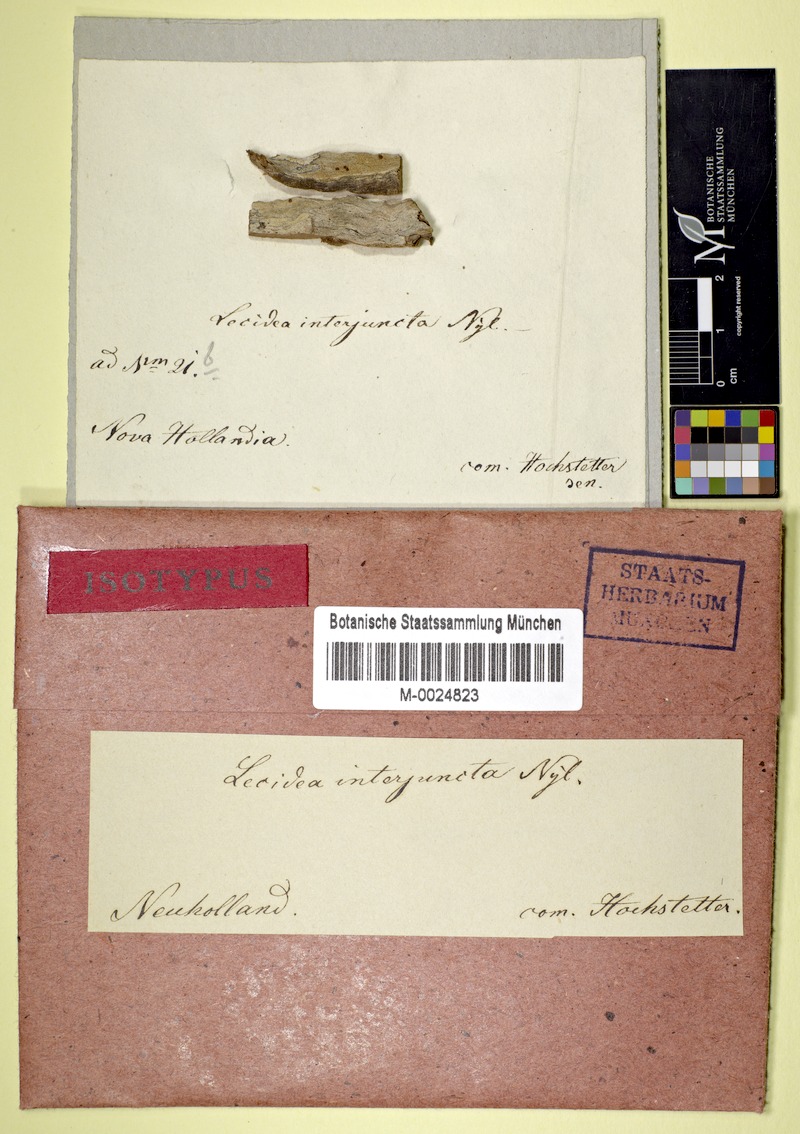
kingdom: Fungi
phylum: Ascomycota
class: Lecanoromycetes
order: Lecideales
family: Lecideaceae
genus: Lecidea
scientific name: Lecidea insulana
